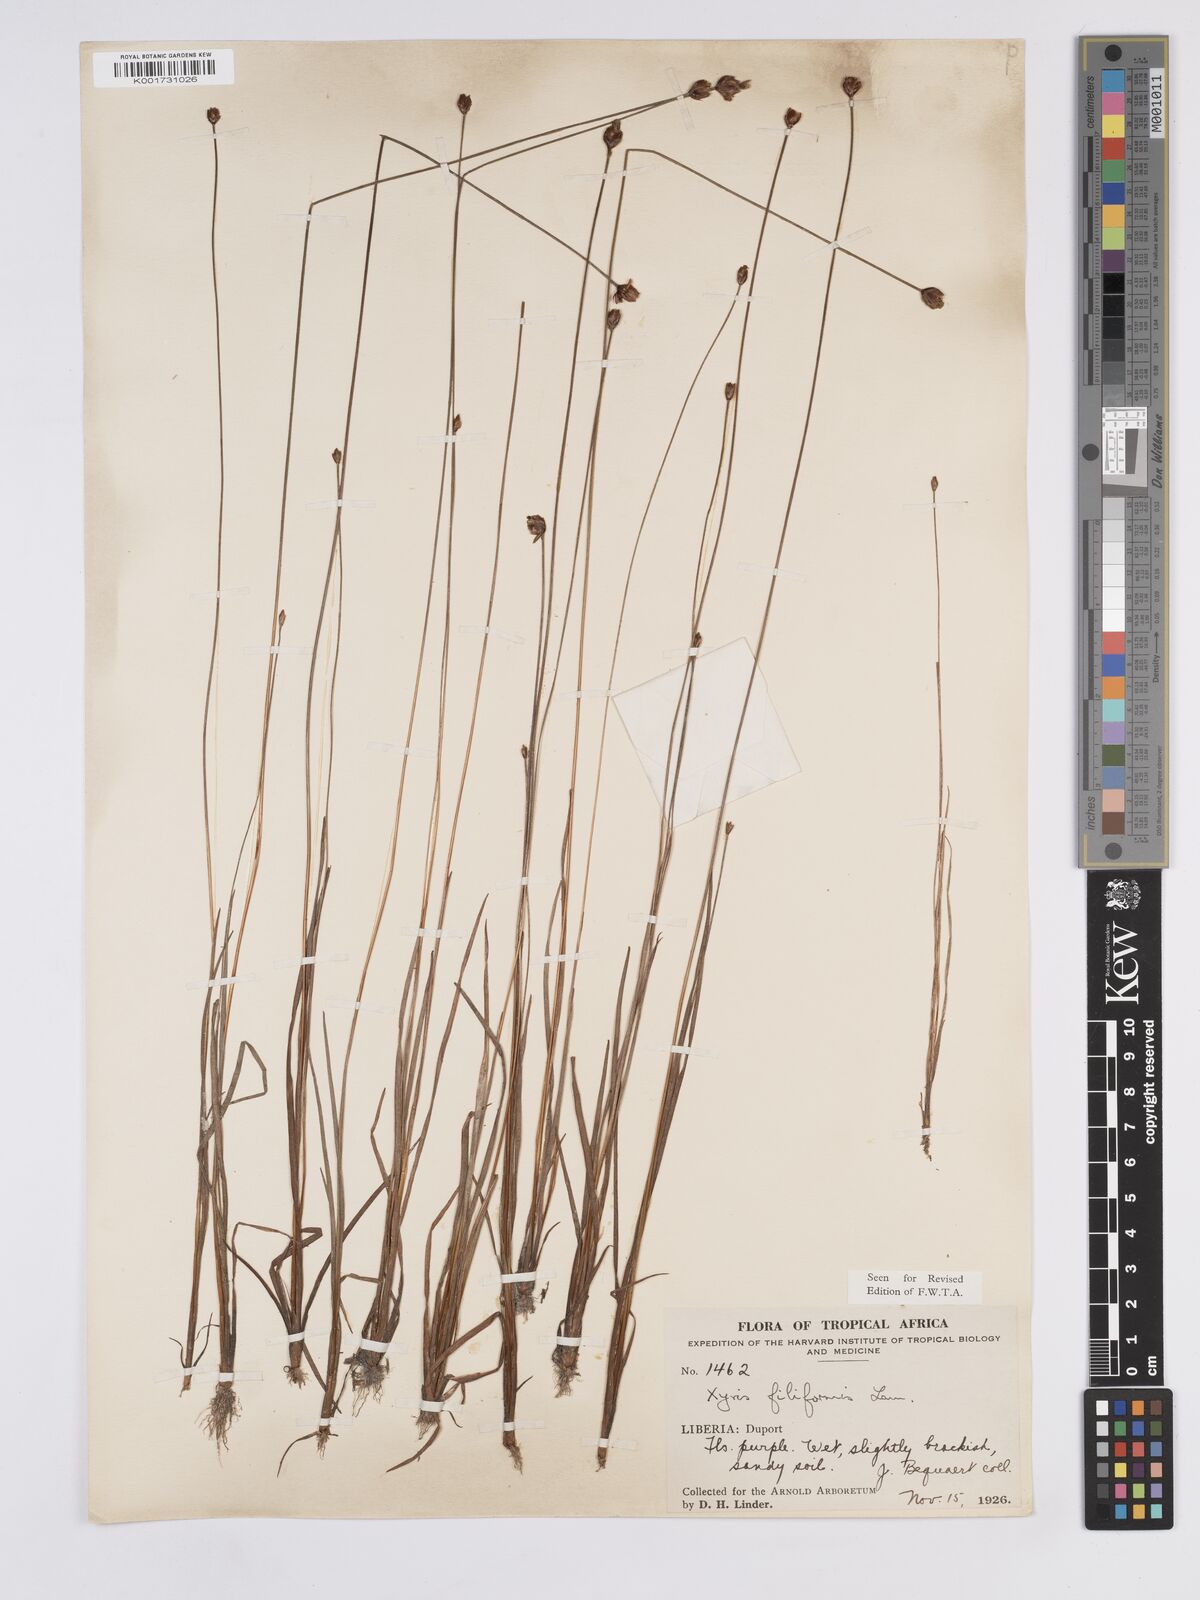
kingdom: Plantae
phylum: Tracheophyta
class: Liliopsida
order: Poales
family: Xyridaceae
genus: Xyris
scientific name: Xyris filiformis
